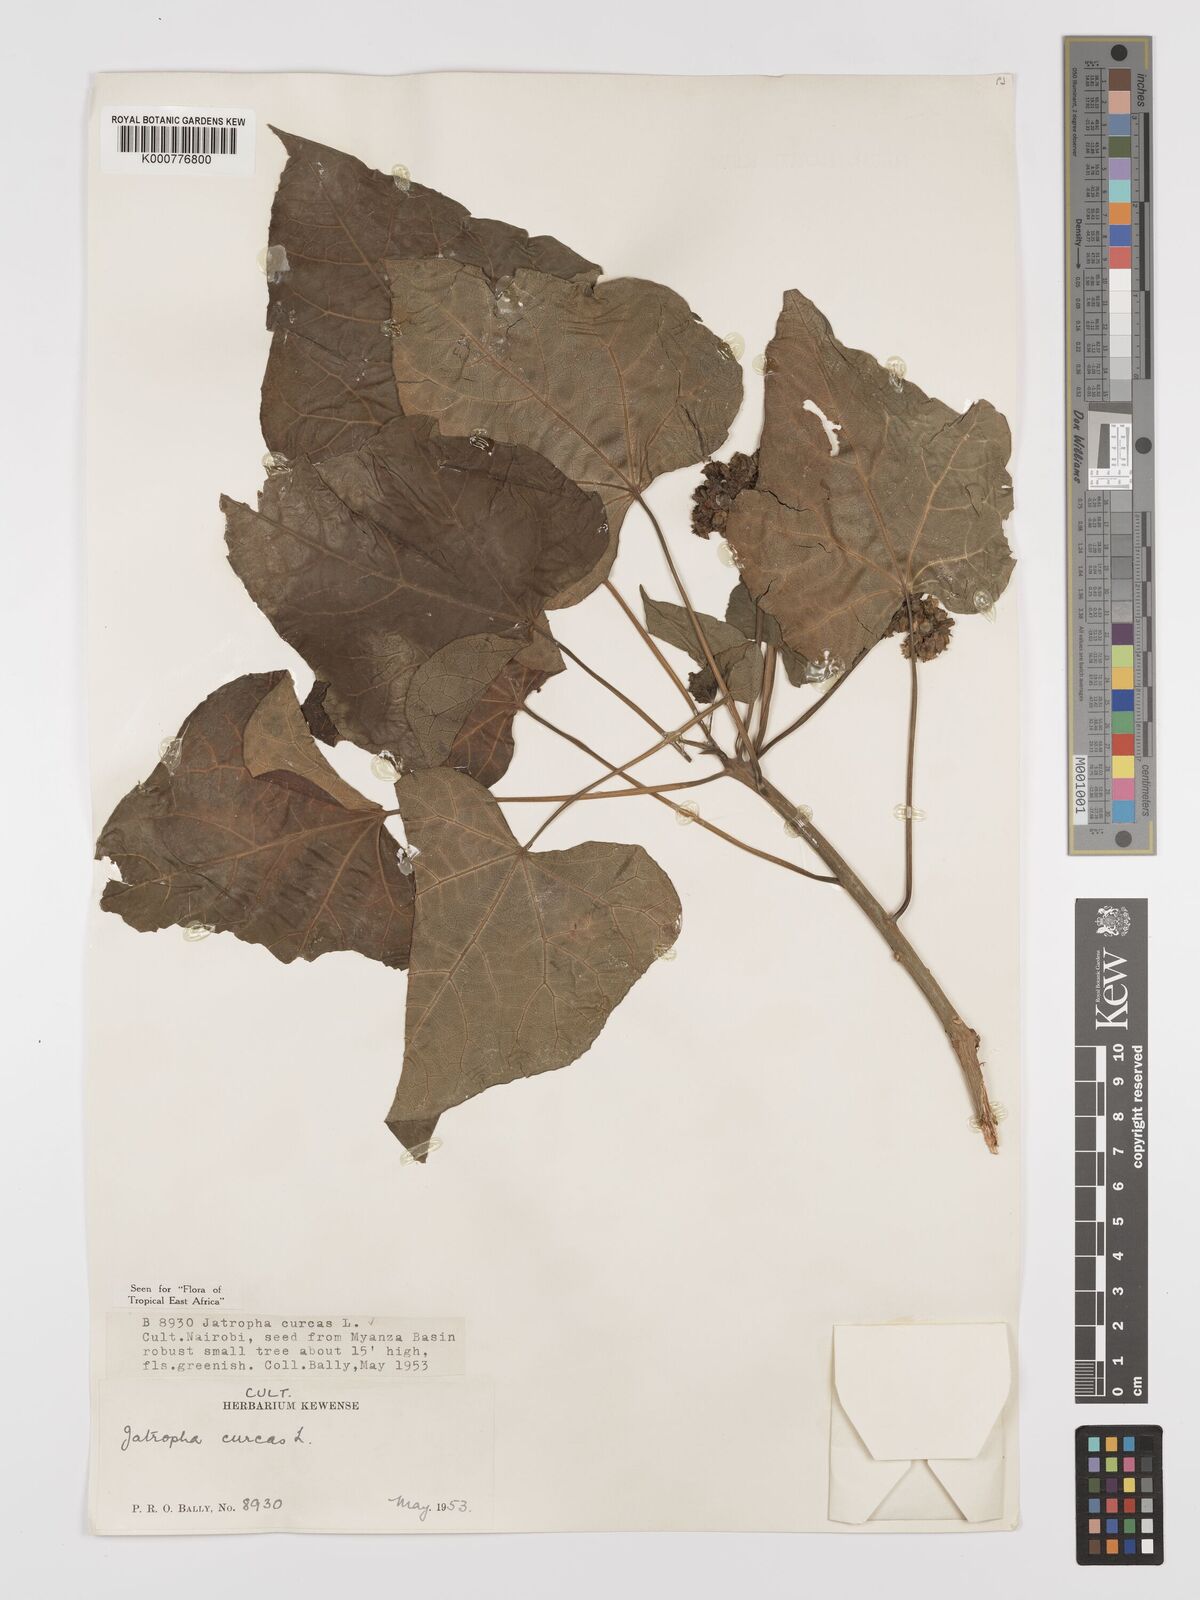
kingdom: Plantae
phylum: Tracheophyta
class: Magnoliopsida
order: Malpighiales
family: Euphorbiaceae
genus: Jatropha
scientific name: Jatropha curcas
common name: Barbados nut
